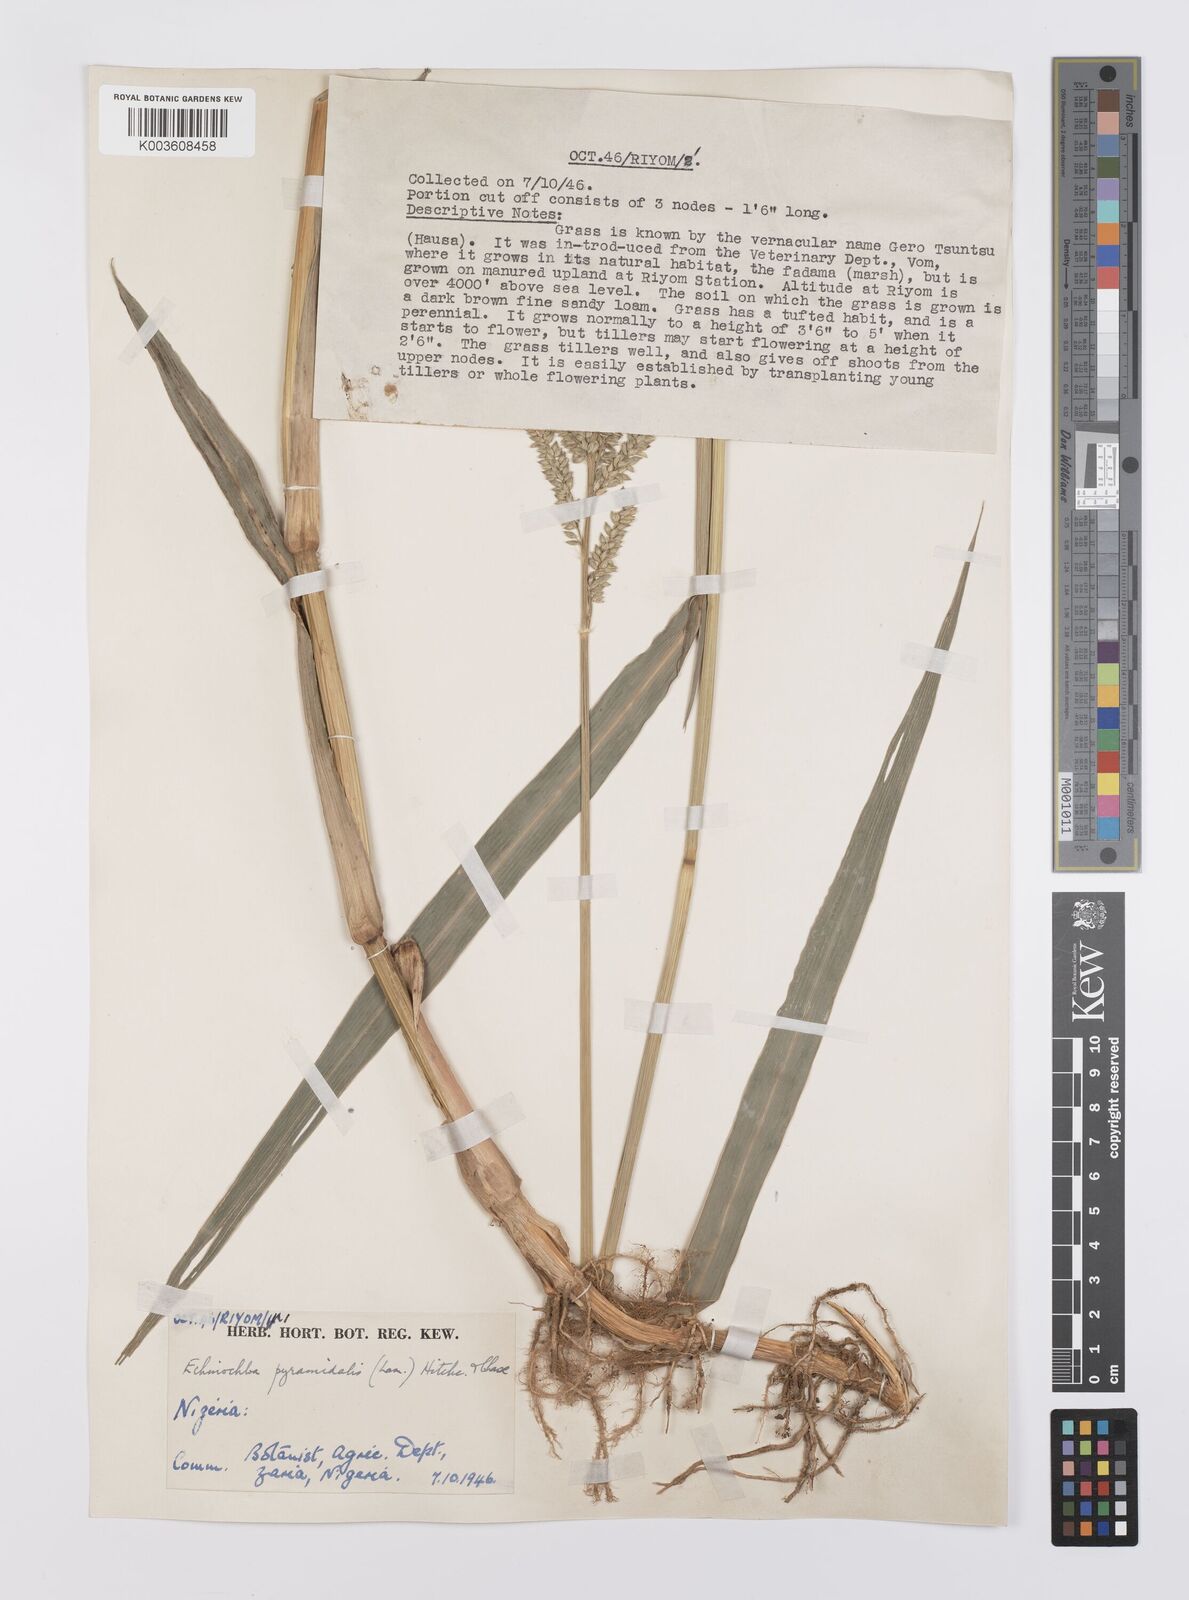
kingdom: Plantae
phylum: Tracheophyta
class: Liliopsida
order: Poales
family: Poaceae
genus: Echinochloa
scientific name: Echinochloa pyramidalis
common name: Antelope grass
